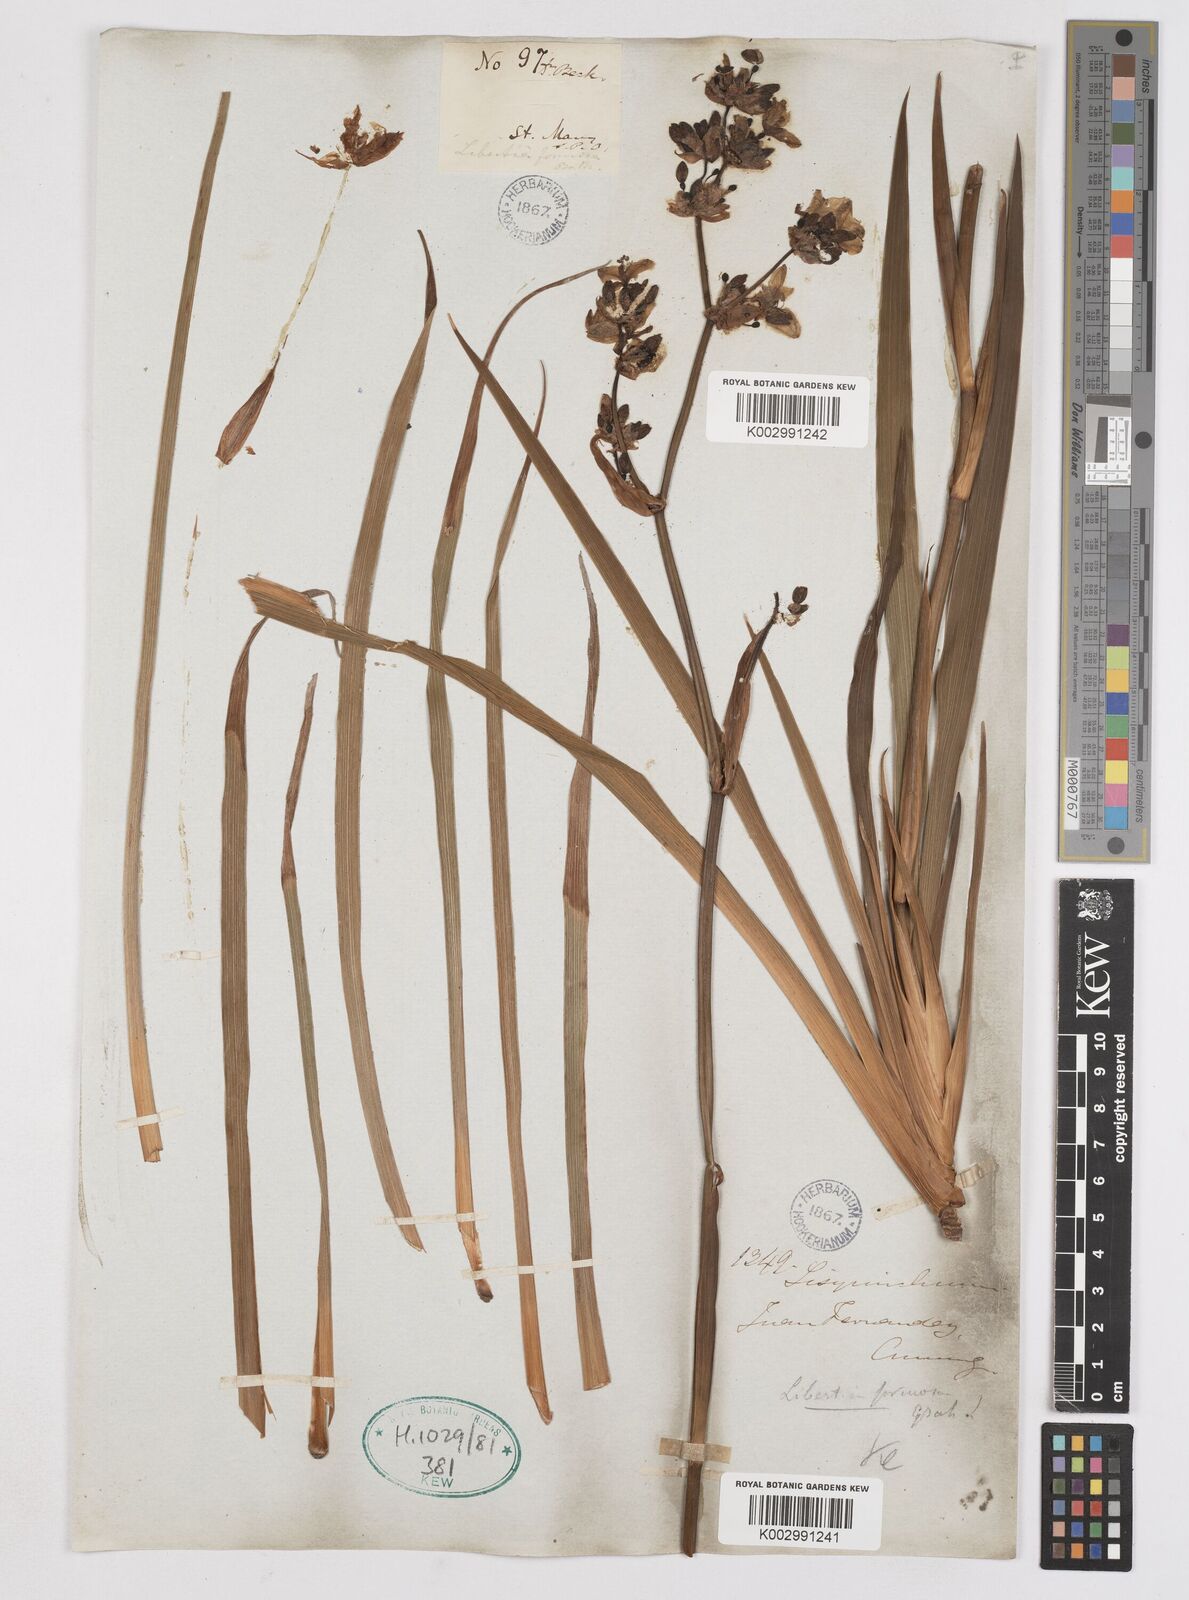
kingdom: Plantae
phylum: Tracheophyta
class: Liliopsida
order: Asparagales
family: Iridaceae
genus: Libertia
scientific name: Libertia chilensis
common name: Satin flower
